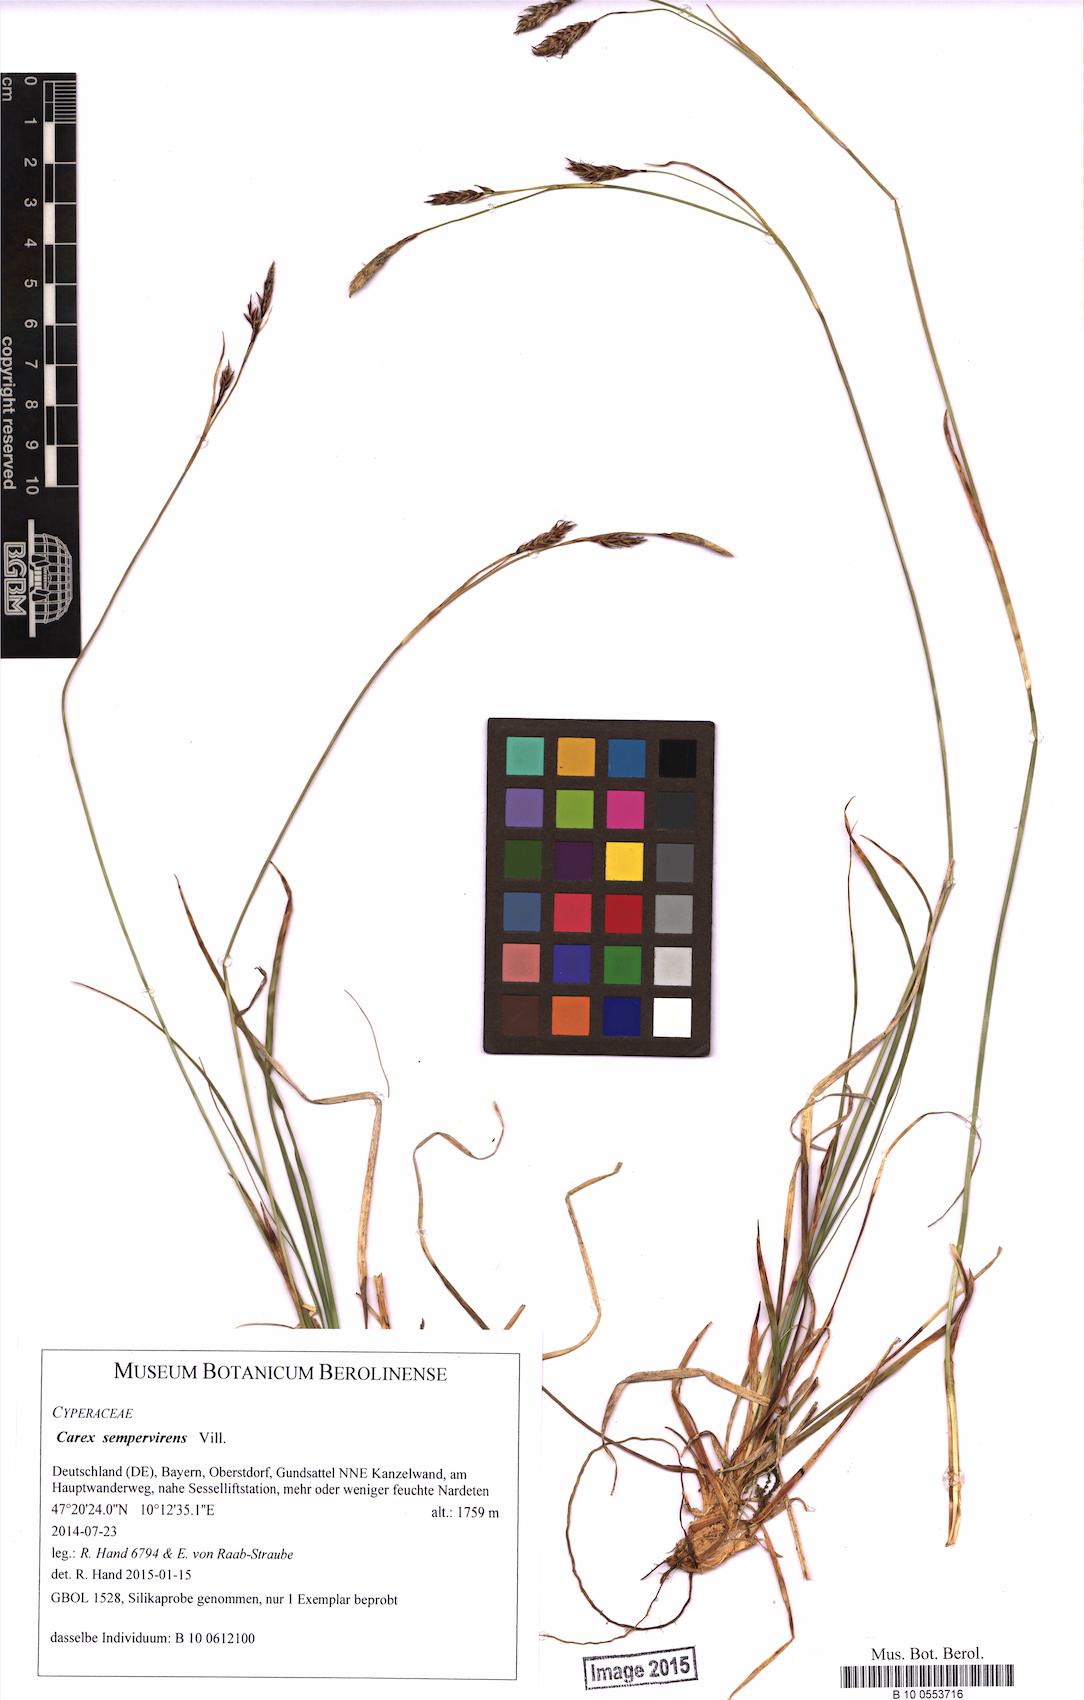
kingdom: Plantae
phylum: Tracheophyta
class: Liliopsida
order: Poales
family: Cyperaceae
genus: Carex
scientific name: Carex sempervirens
